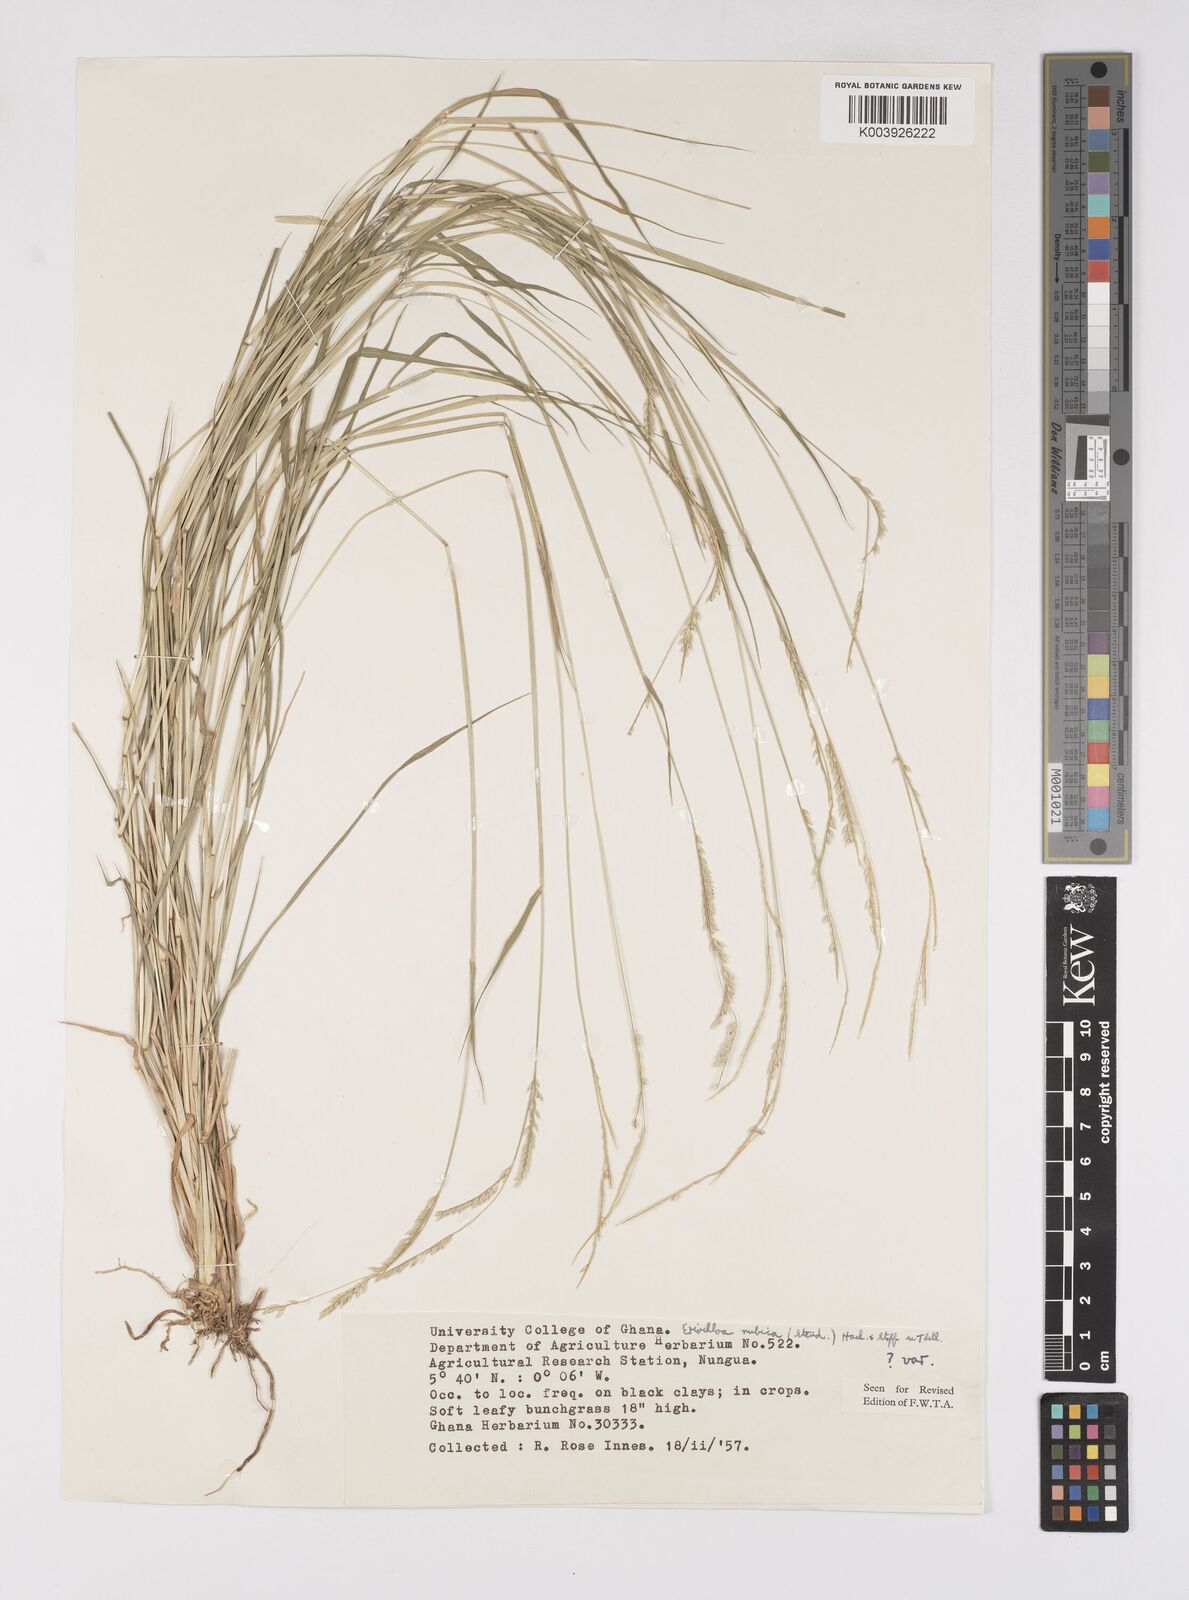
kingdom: Plantae
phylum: Tracheophyta
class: Liliopsida
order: Poales
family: Poaceae
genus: Eriochloa
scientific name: Eriochloa barbatus
